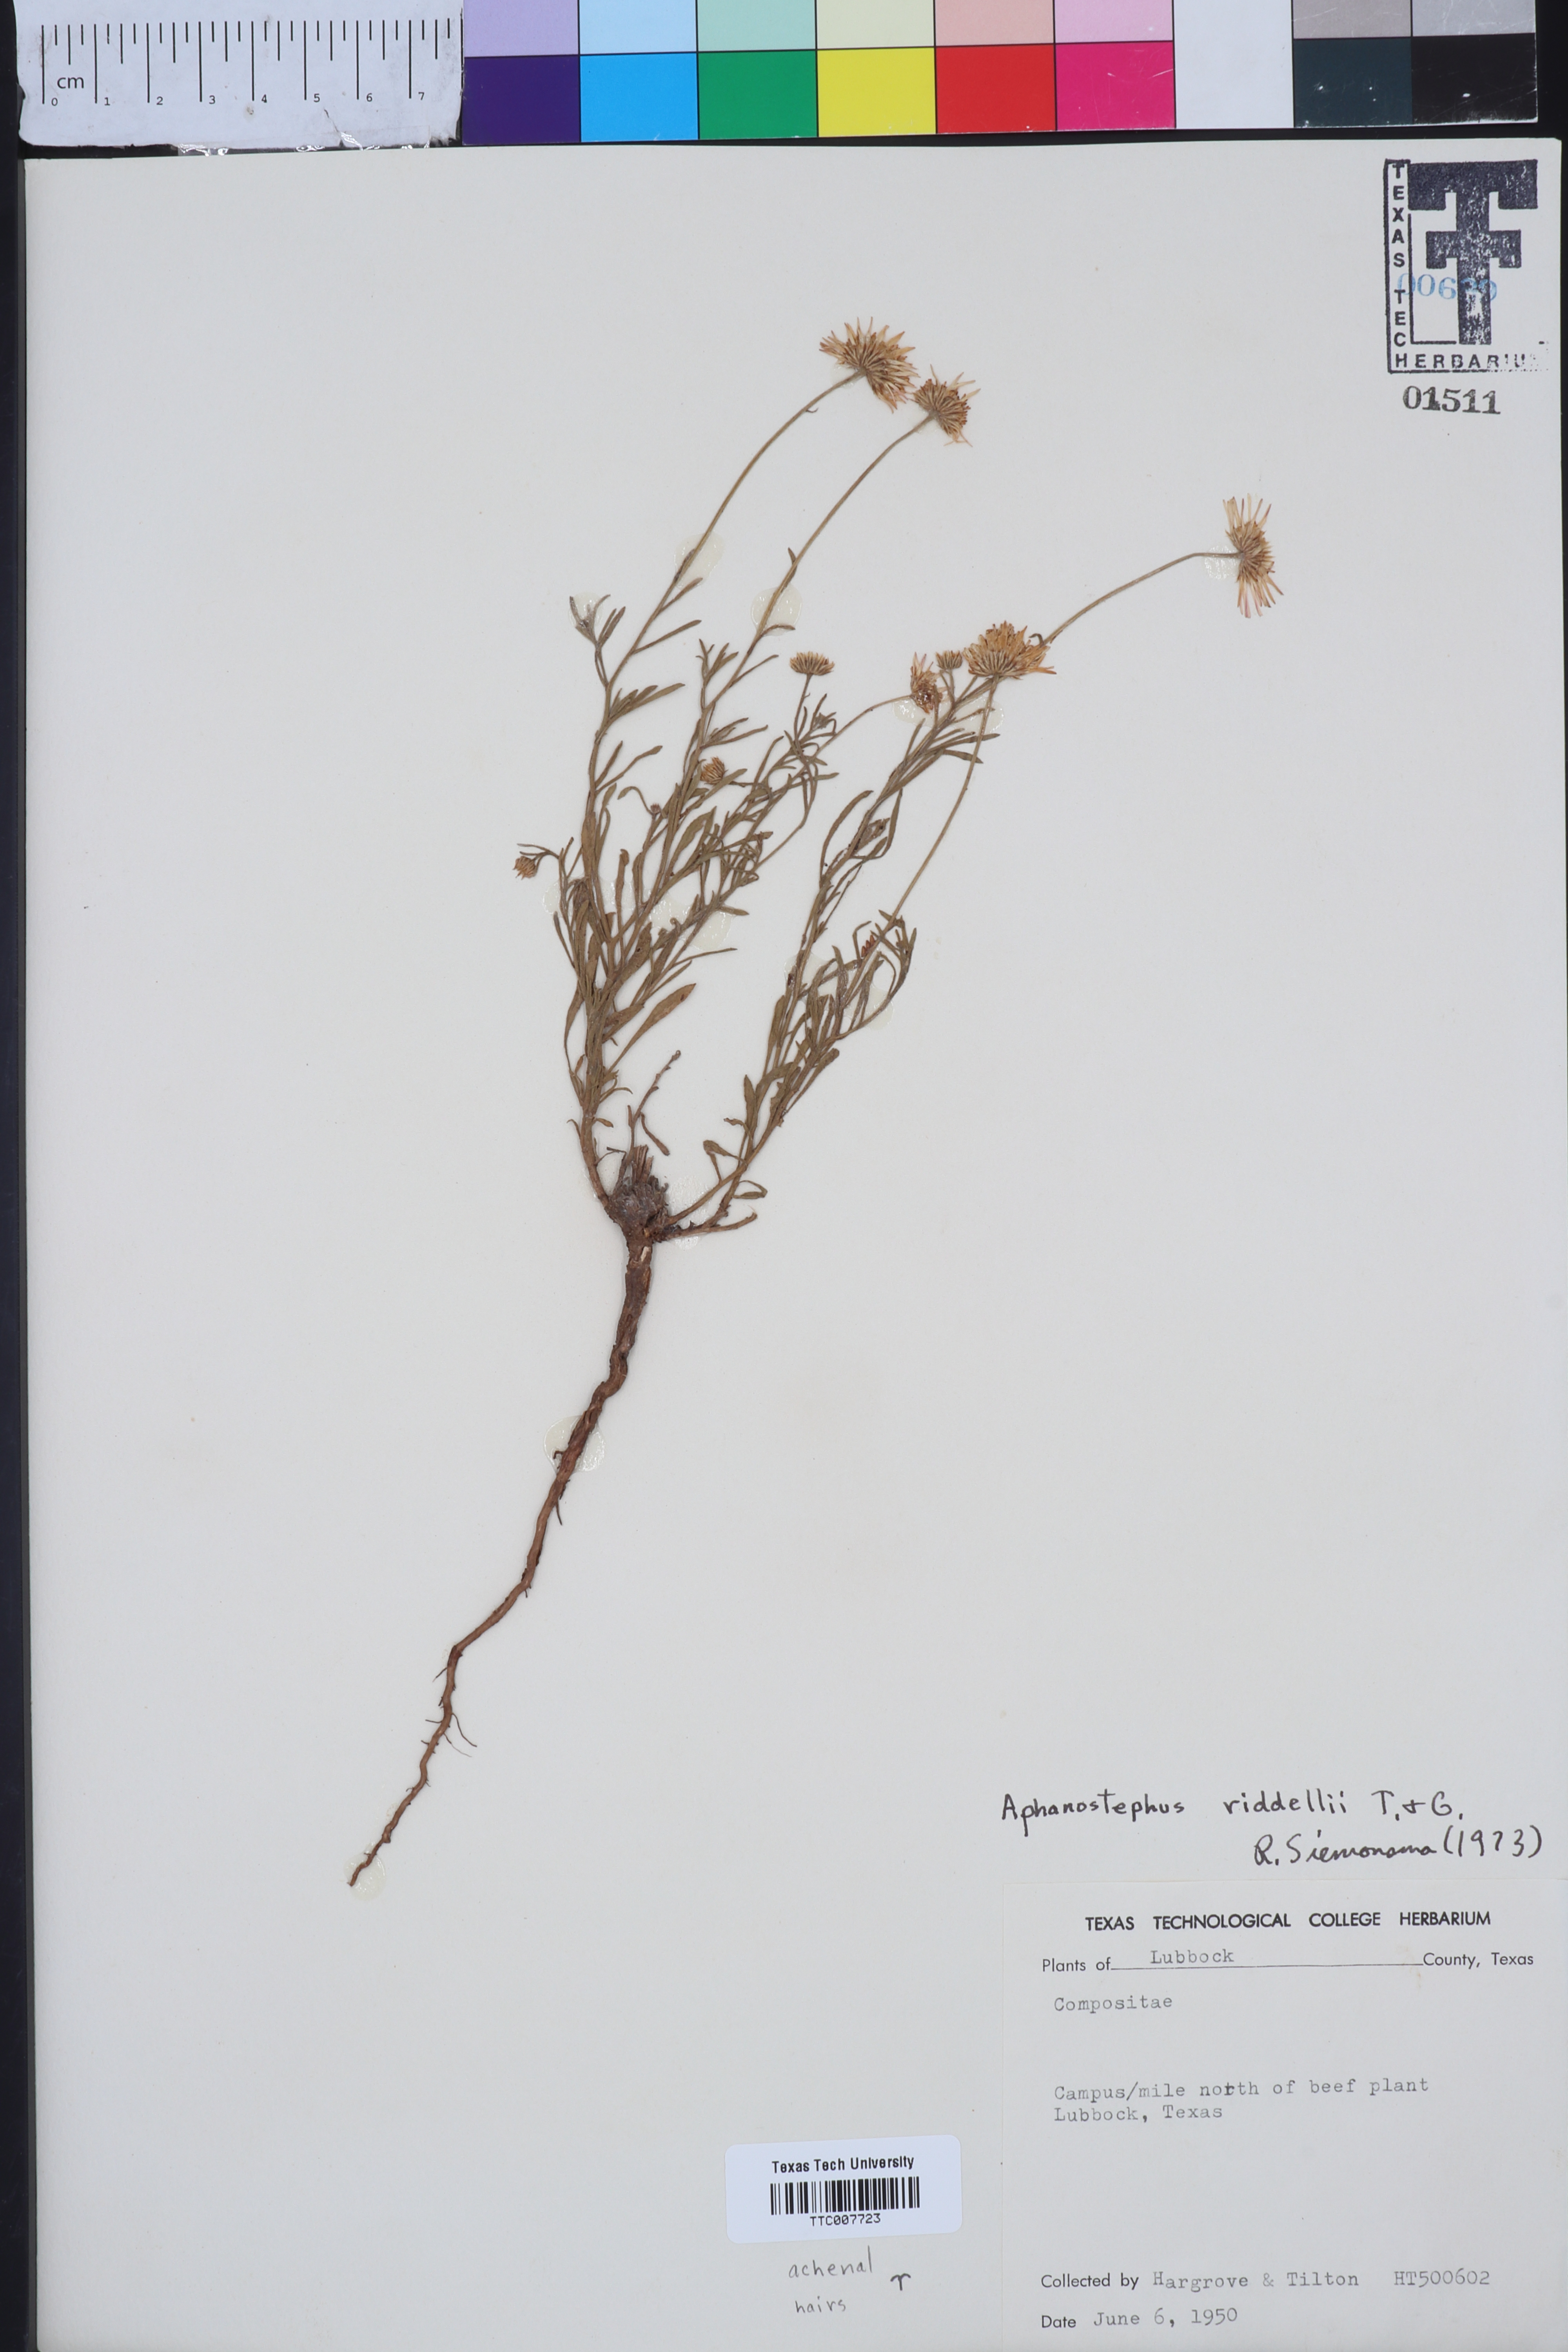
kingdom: Plantae
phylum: Tracheophyta
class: Magnoliopsida
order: Asterales
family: Asteraceae
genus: Aphanostephus
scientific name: Aphanostephus riddellii
